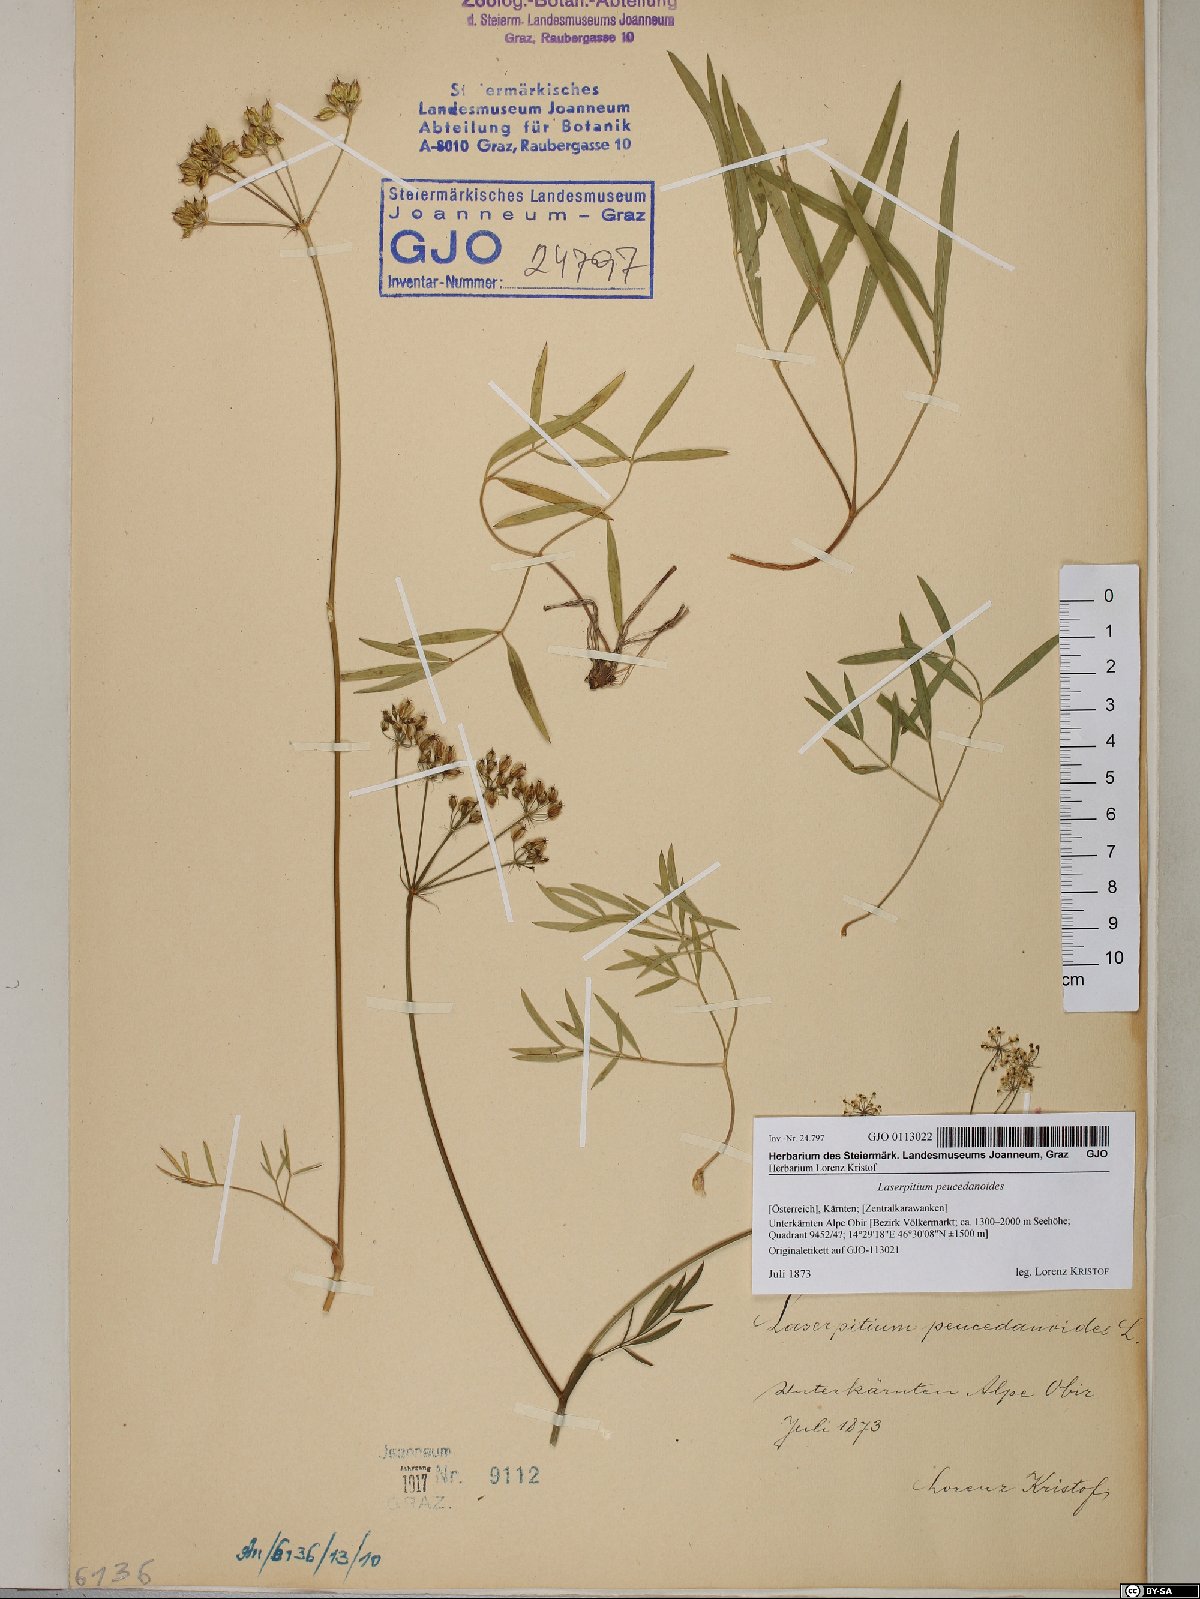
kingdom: Plantae
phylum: Tracheophyta
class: Magnoliopsida
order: Apiales
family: Apiaceae
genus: Laserpitium
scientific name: Laserpitium peucedanoides
